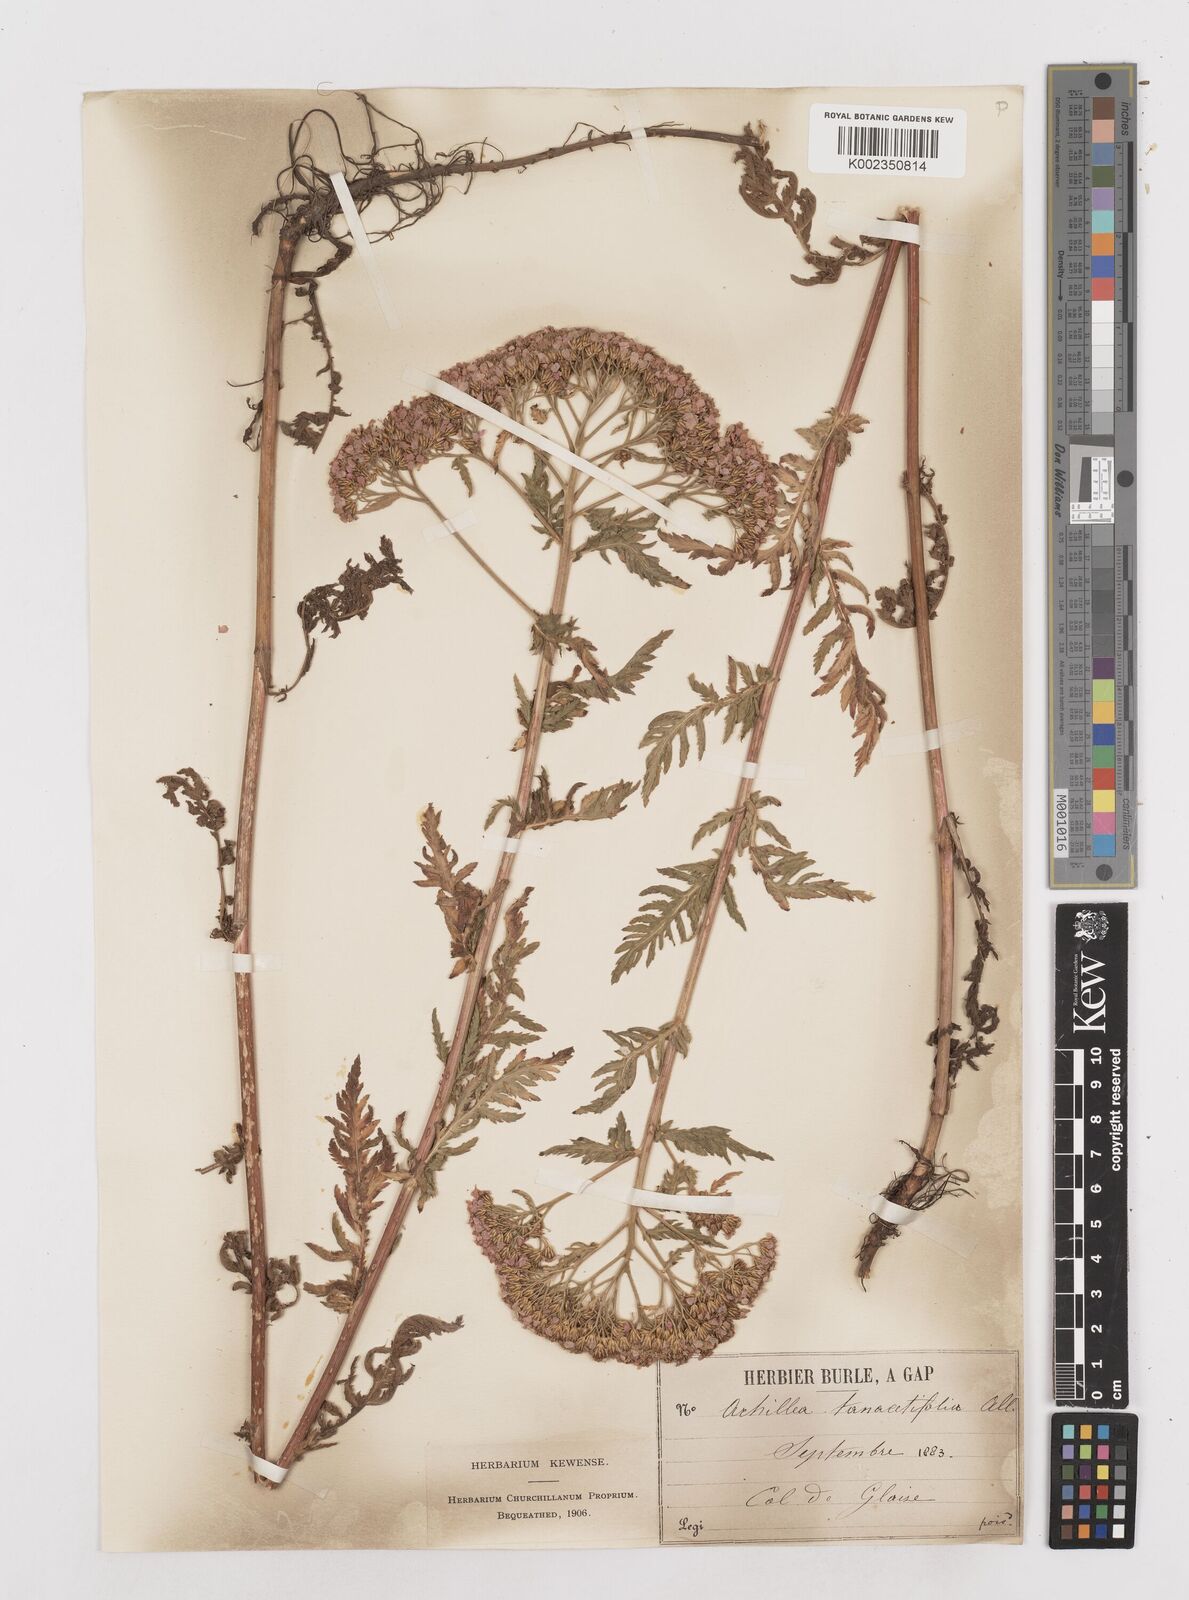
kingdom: Plantae
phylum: Tracheophyta
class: Magnoliopsida
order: Asterales
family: Asteraceae
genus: Achillea
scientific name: Achillea distans
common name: Tall yarrow
